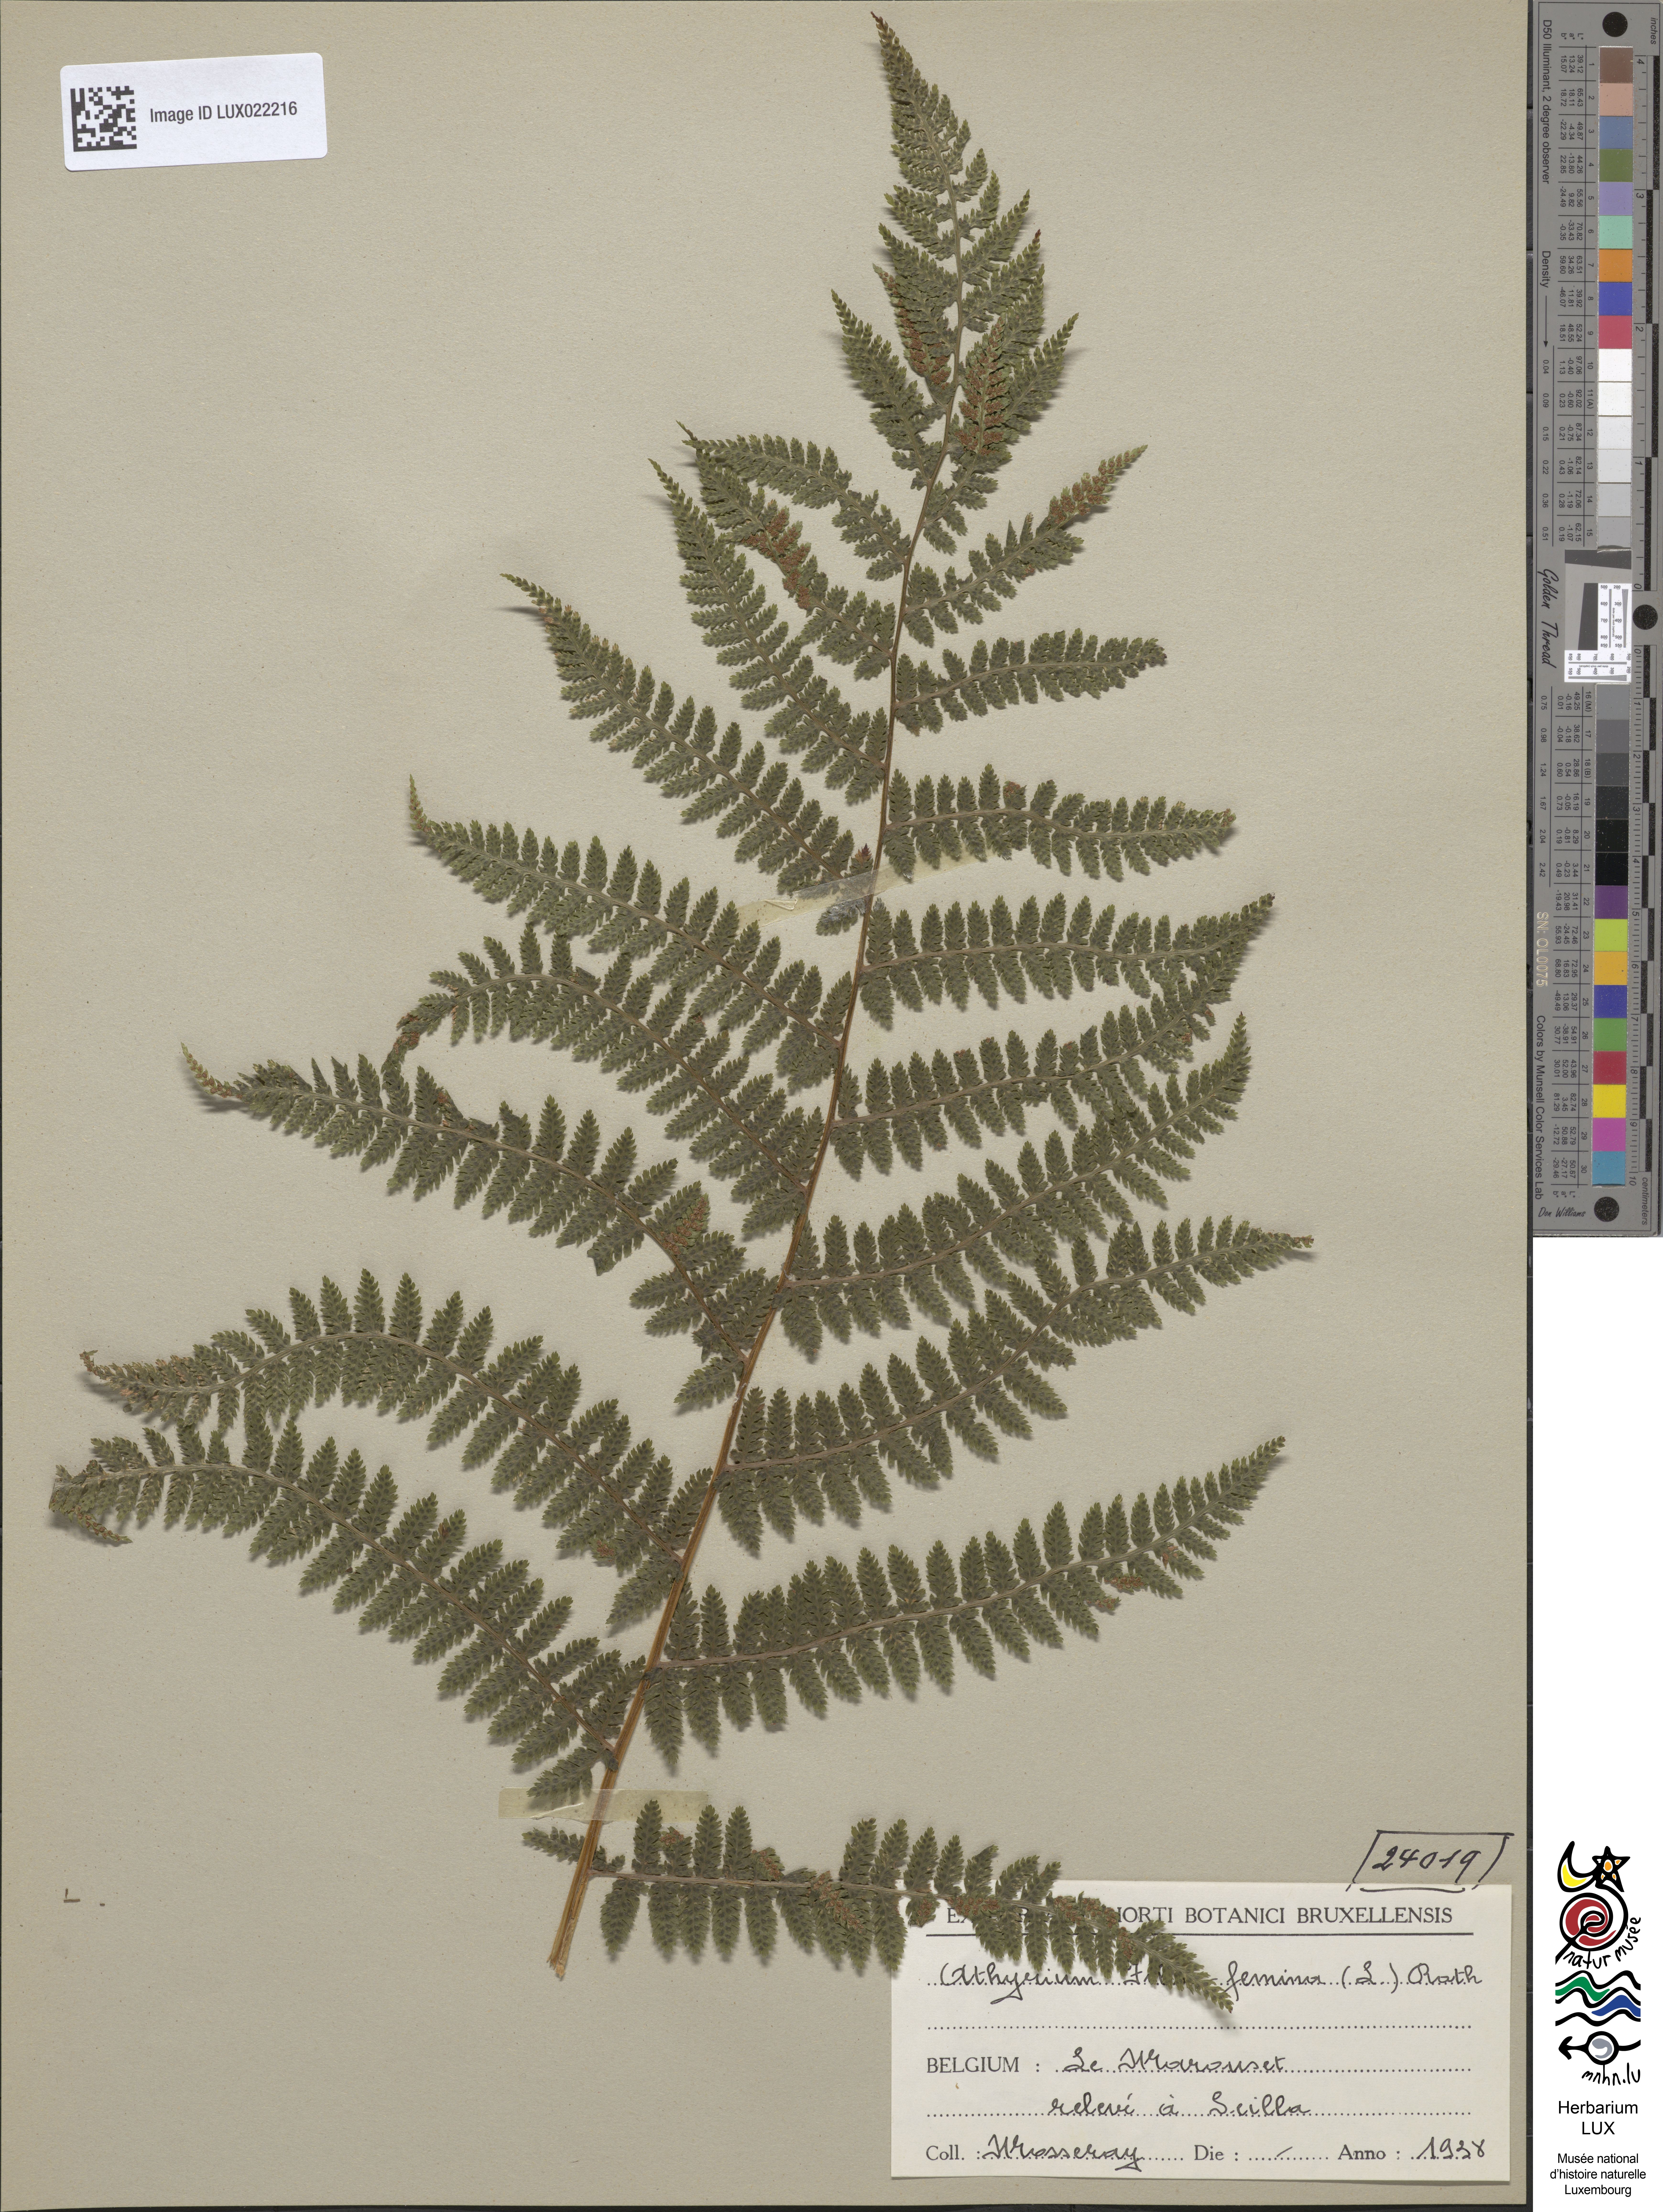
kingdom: Plantae
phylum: Tracheophyta
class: Polypodiopsida
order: Polypodiales
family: Athyriaceae
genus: Athyrium
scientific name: Athyrium filix-femina
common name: Lady fern
